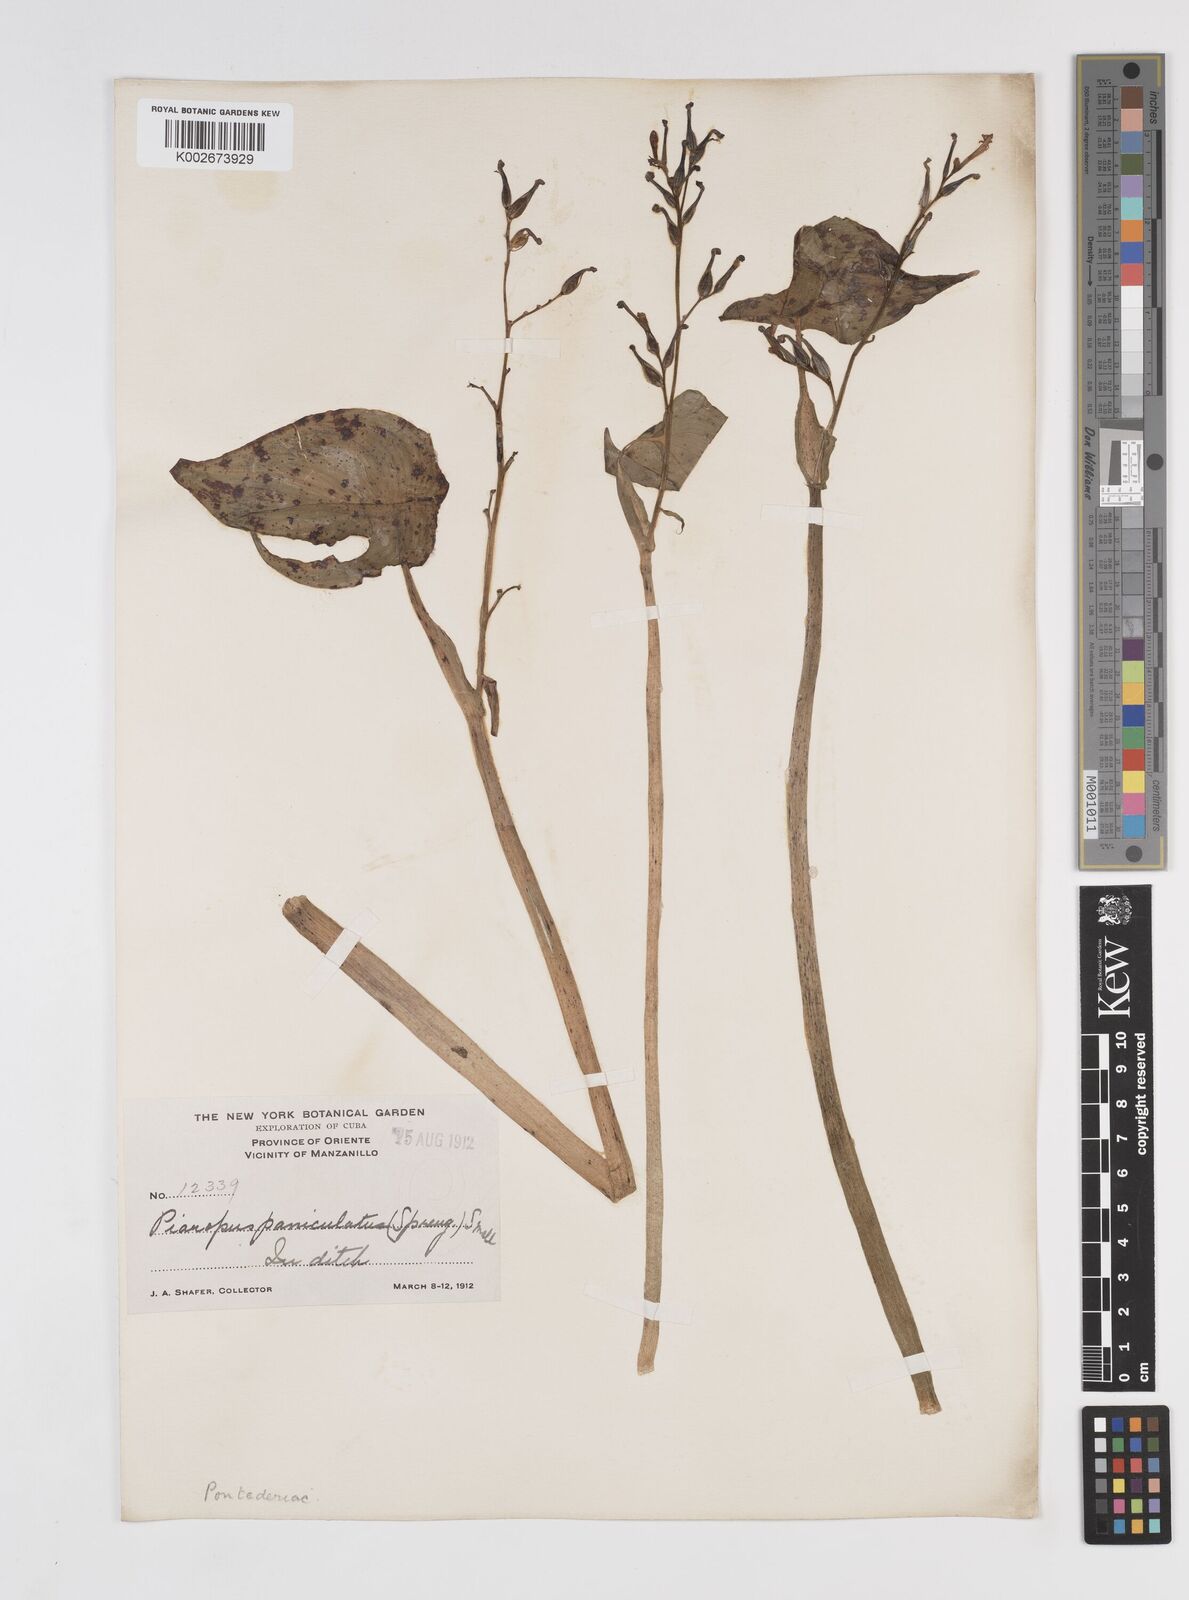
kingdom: Plantae
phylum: Tracheophyta
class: Liliopsida
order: Commelinales
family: Pontederiaceae
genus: Pontederia
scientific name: Pontederia paniculata
